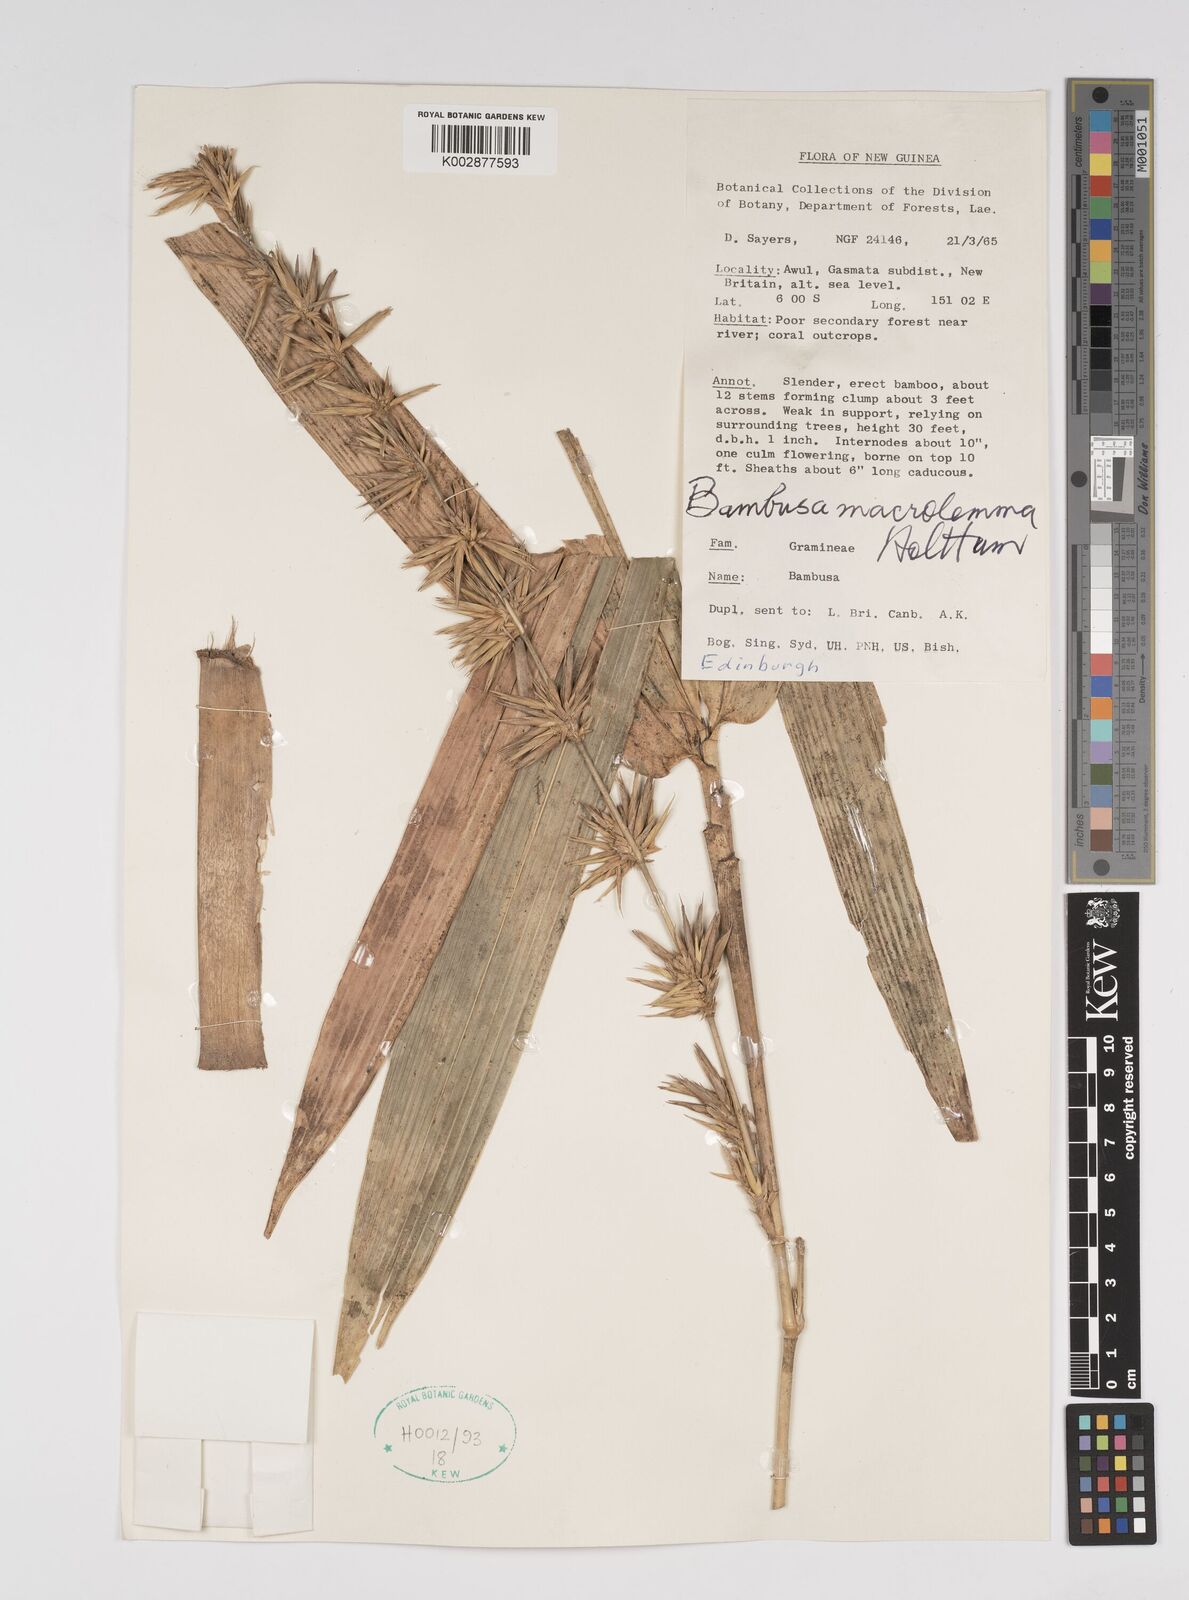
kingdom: Plantae
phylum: Tracheophyta
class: Liliopsida
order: Poales
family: Poaceae
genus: Bambusa
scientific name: Bambusa macrolemma
